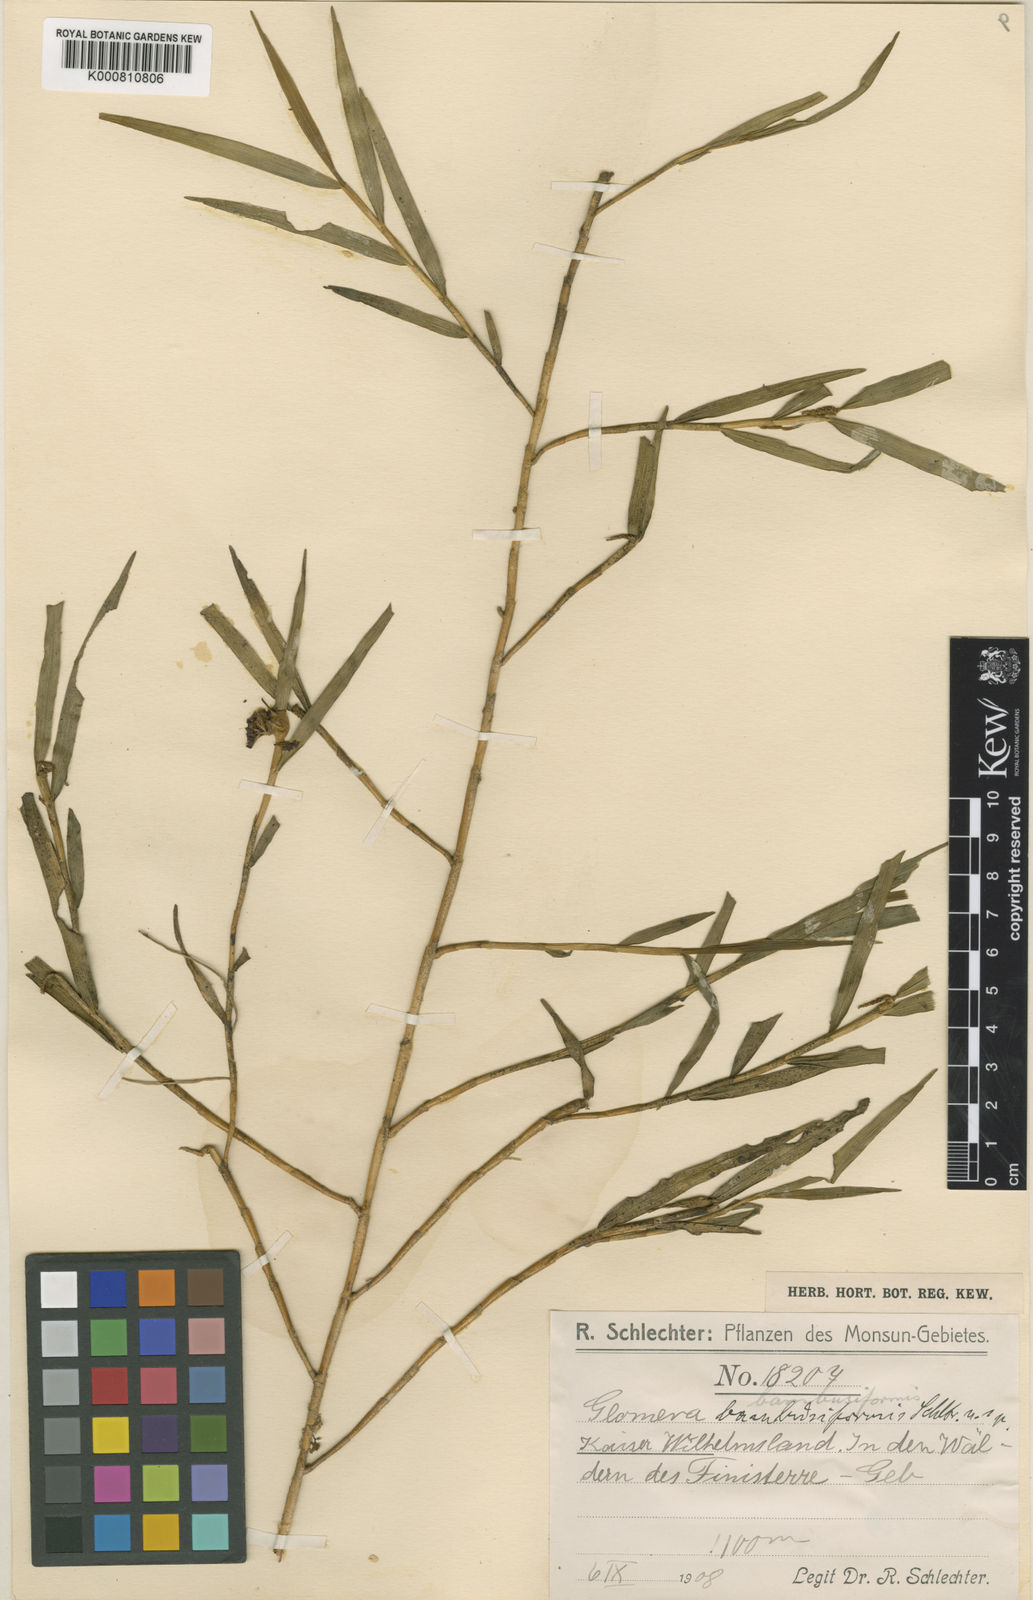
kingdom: Plantae
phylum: Tracheophyta
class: Liliopsida
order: Asparagales
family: Orchidaceae
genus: Glomera
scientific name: Glomera bambusiformis
